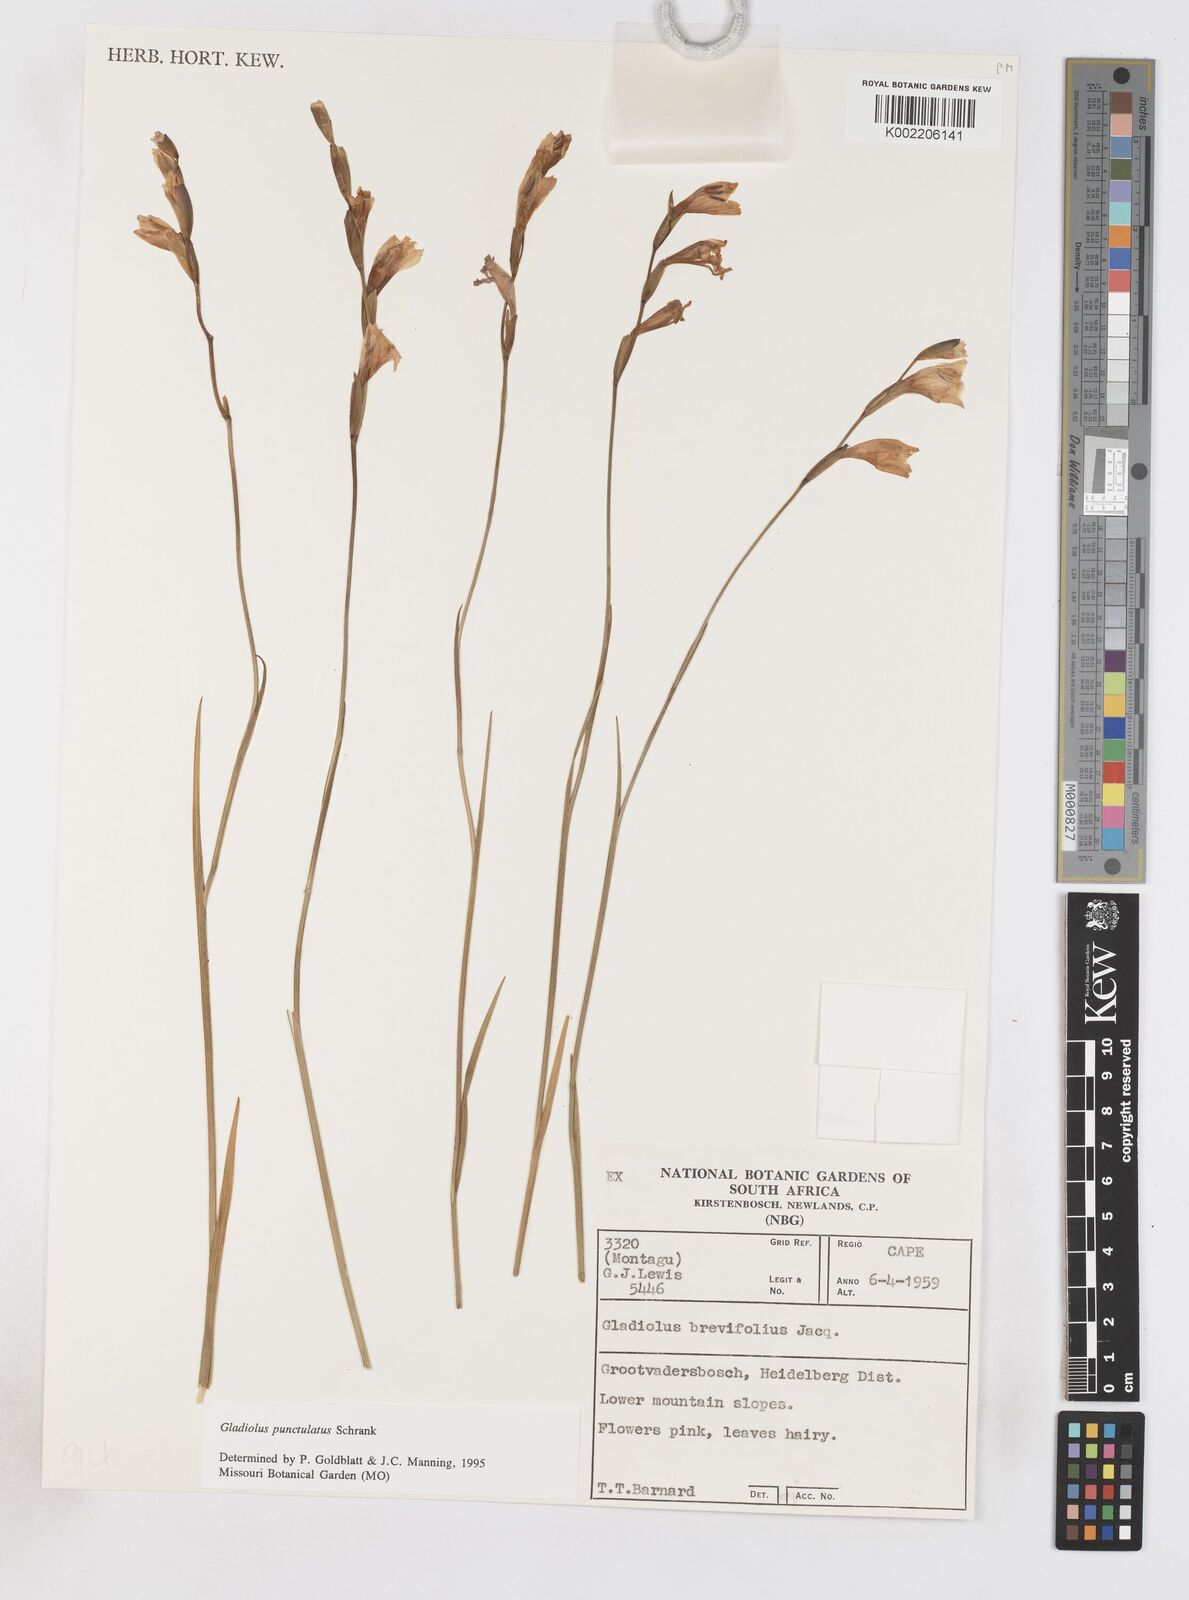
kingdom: Plantae
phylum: Tracheophyta
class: Liliopsida
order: Asparagales
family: Iridaceae
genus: Gladiolus
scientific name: Gladiolus hirsutus
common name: Small pink afrikaner
